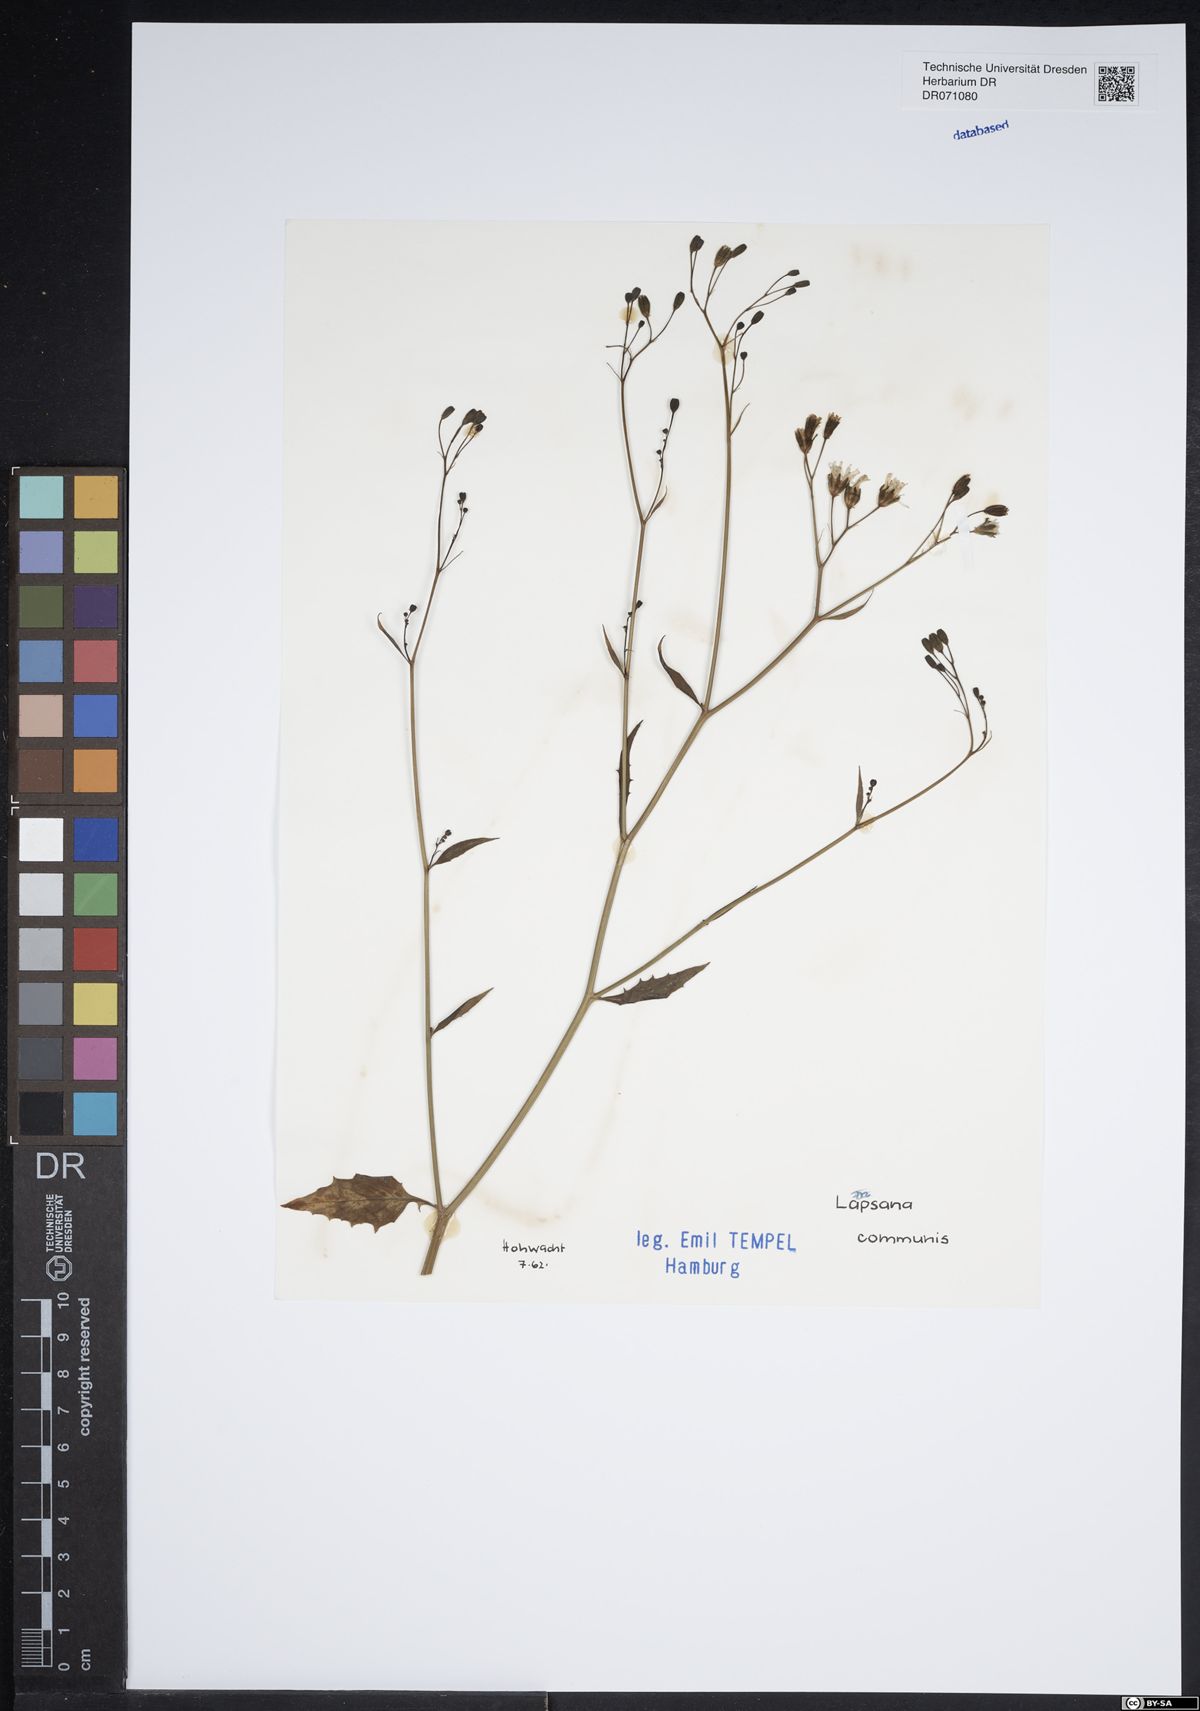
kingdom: Plantae
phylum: Tracheophyta
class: Magnoliopsida
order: Asterales
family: Asteraceae
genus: Lapsana
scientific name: Lapsana communis
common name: Nipplewort
